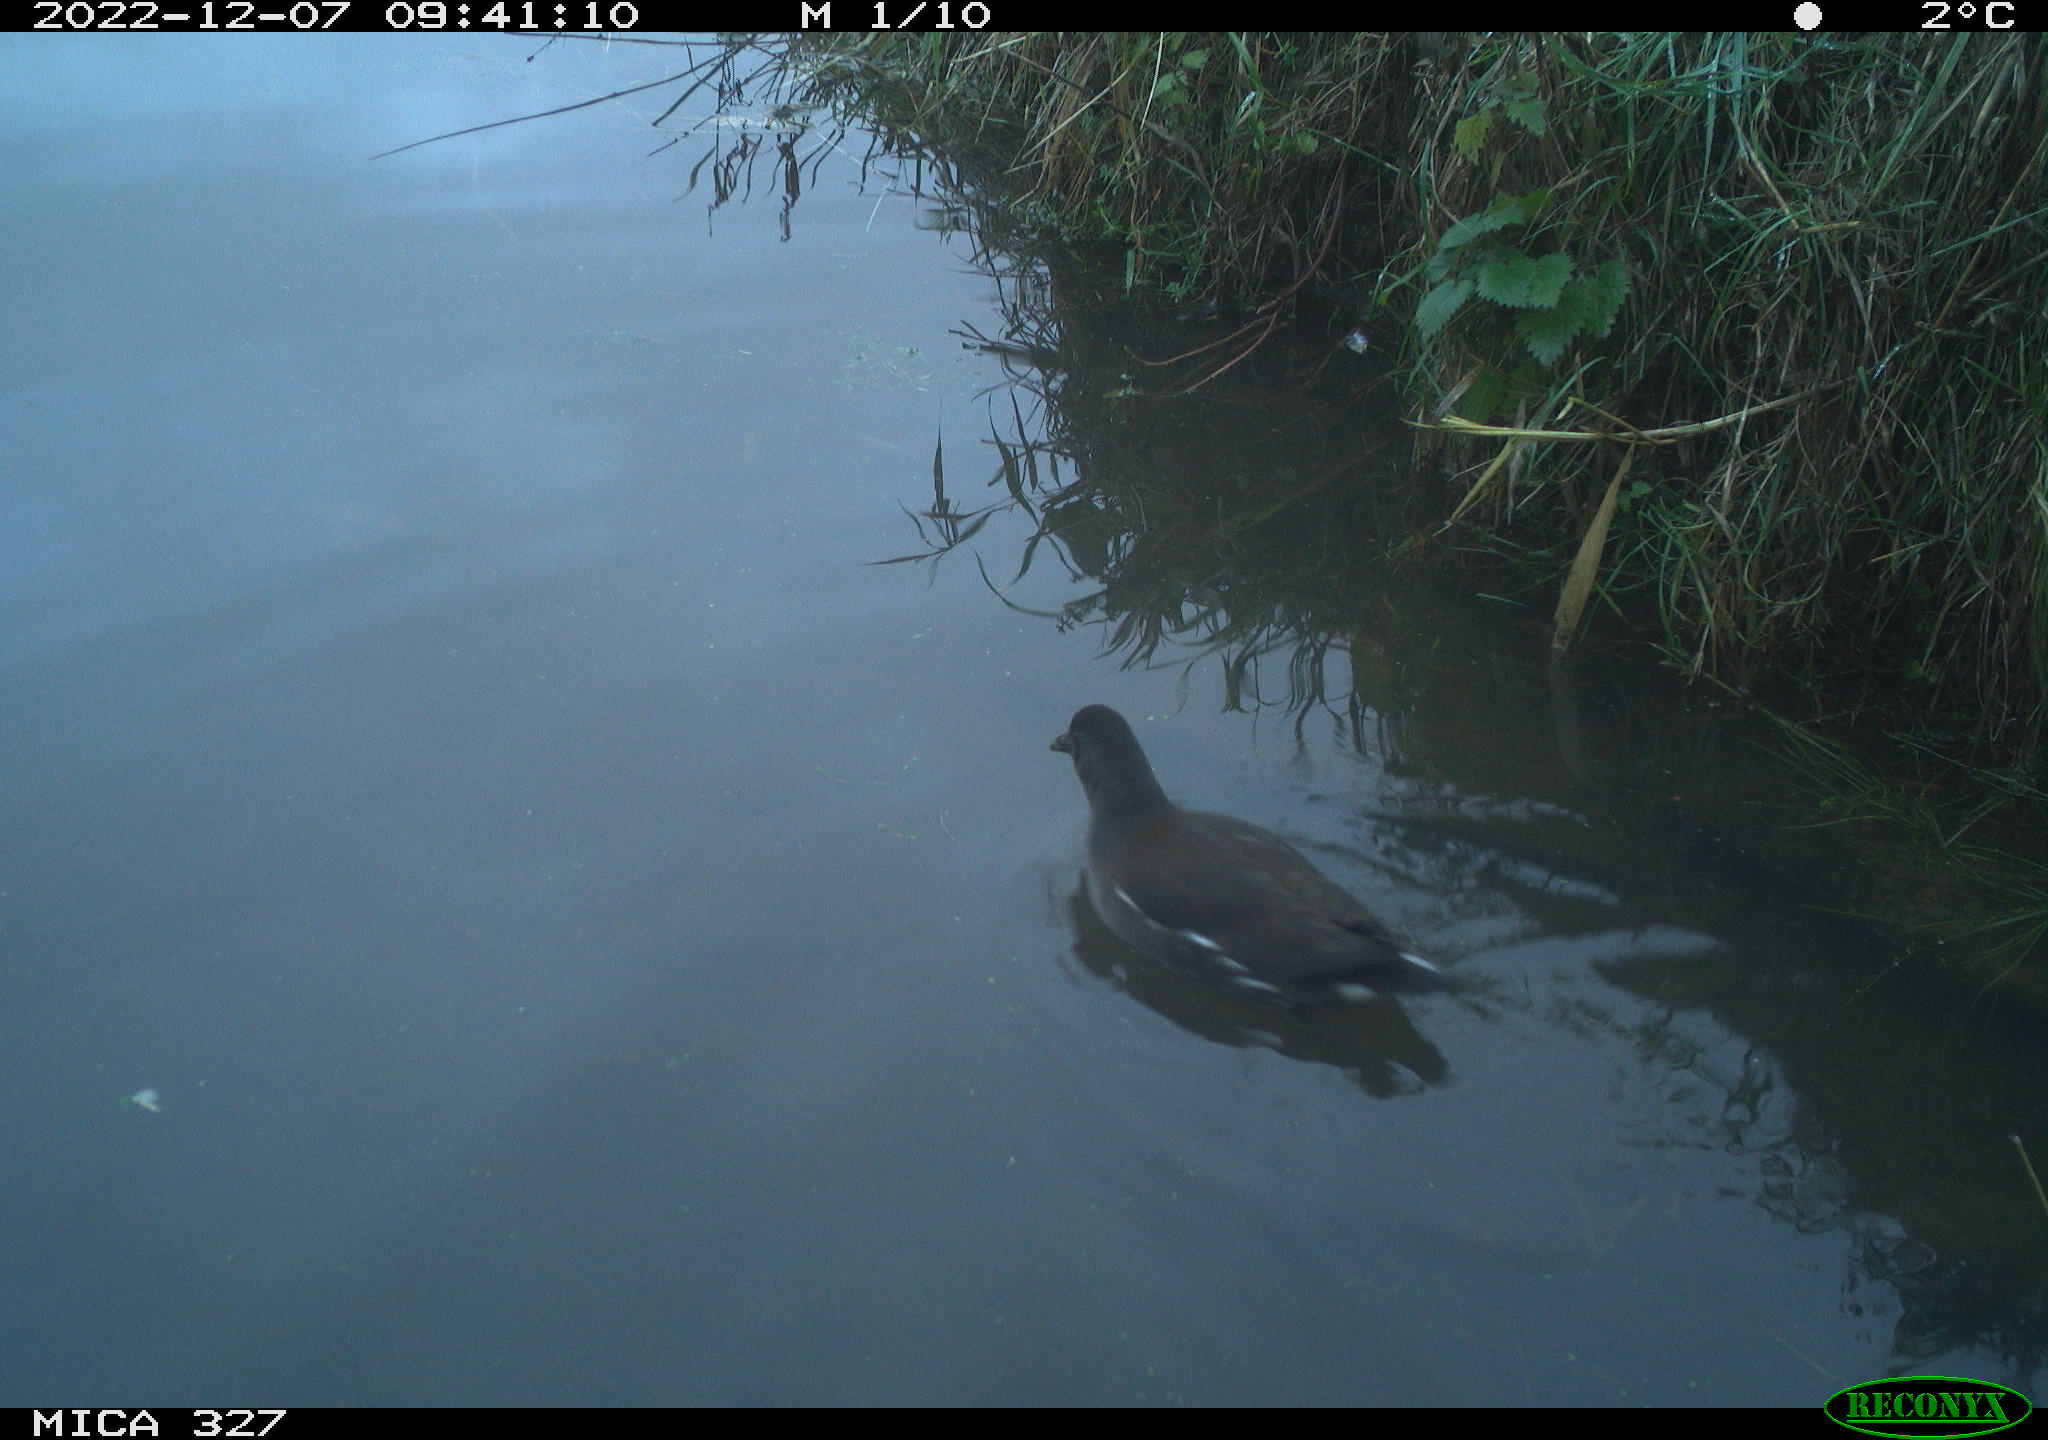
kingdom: Animalia
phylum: Chordata
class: Aves
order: Gruiformes
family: Rallidae
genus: Gallinula
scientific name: Gallinula chloropus
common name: Common moorhen
